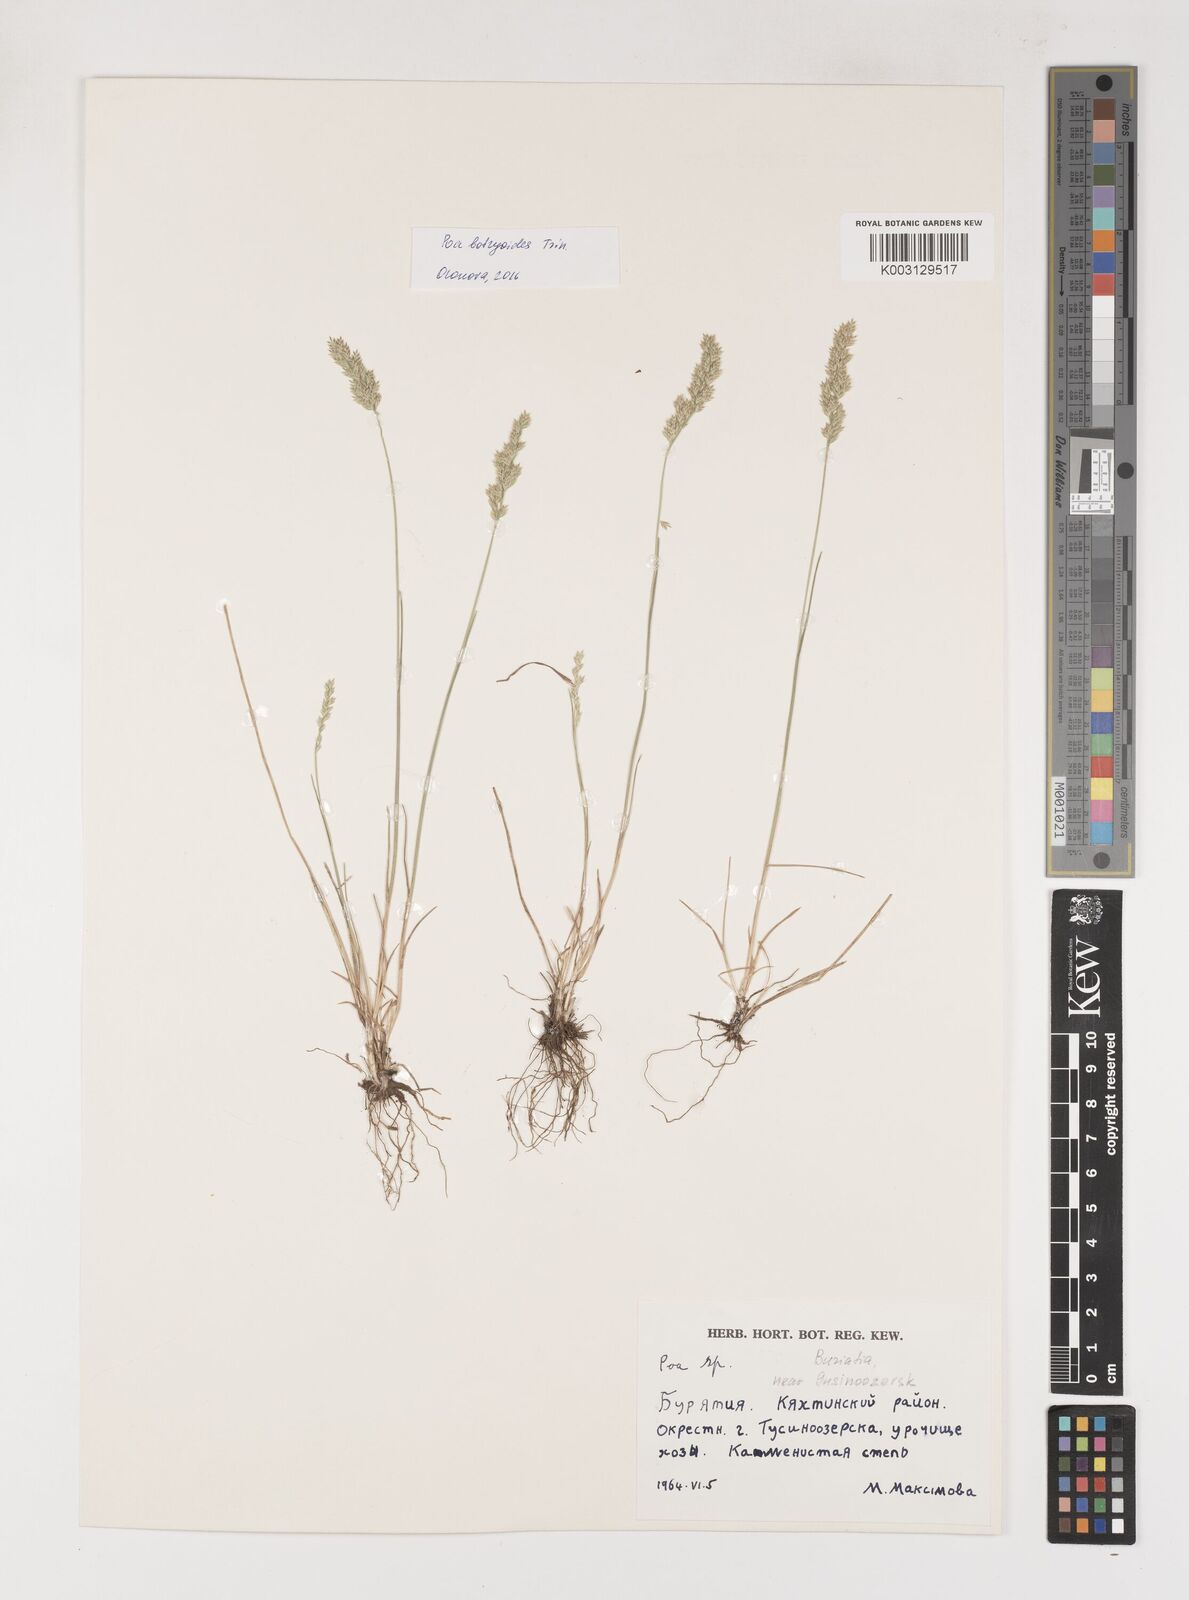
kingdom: Plantae
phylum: Tracheophyta
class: Liliopsida
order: Poales
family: Poaceae
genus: Poa
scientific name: Poa
